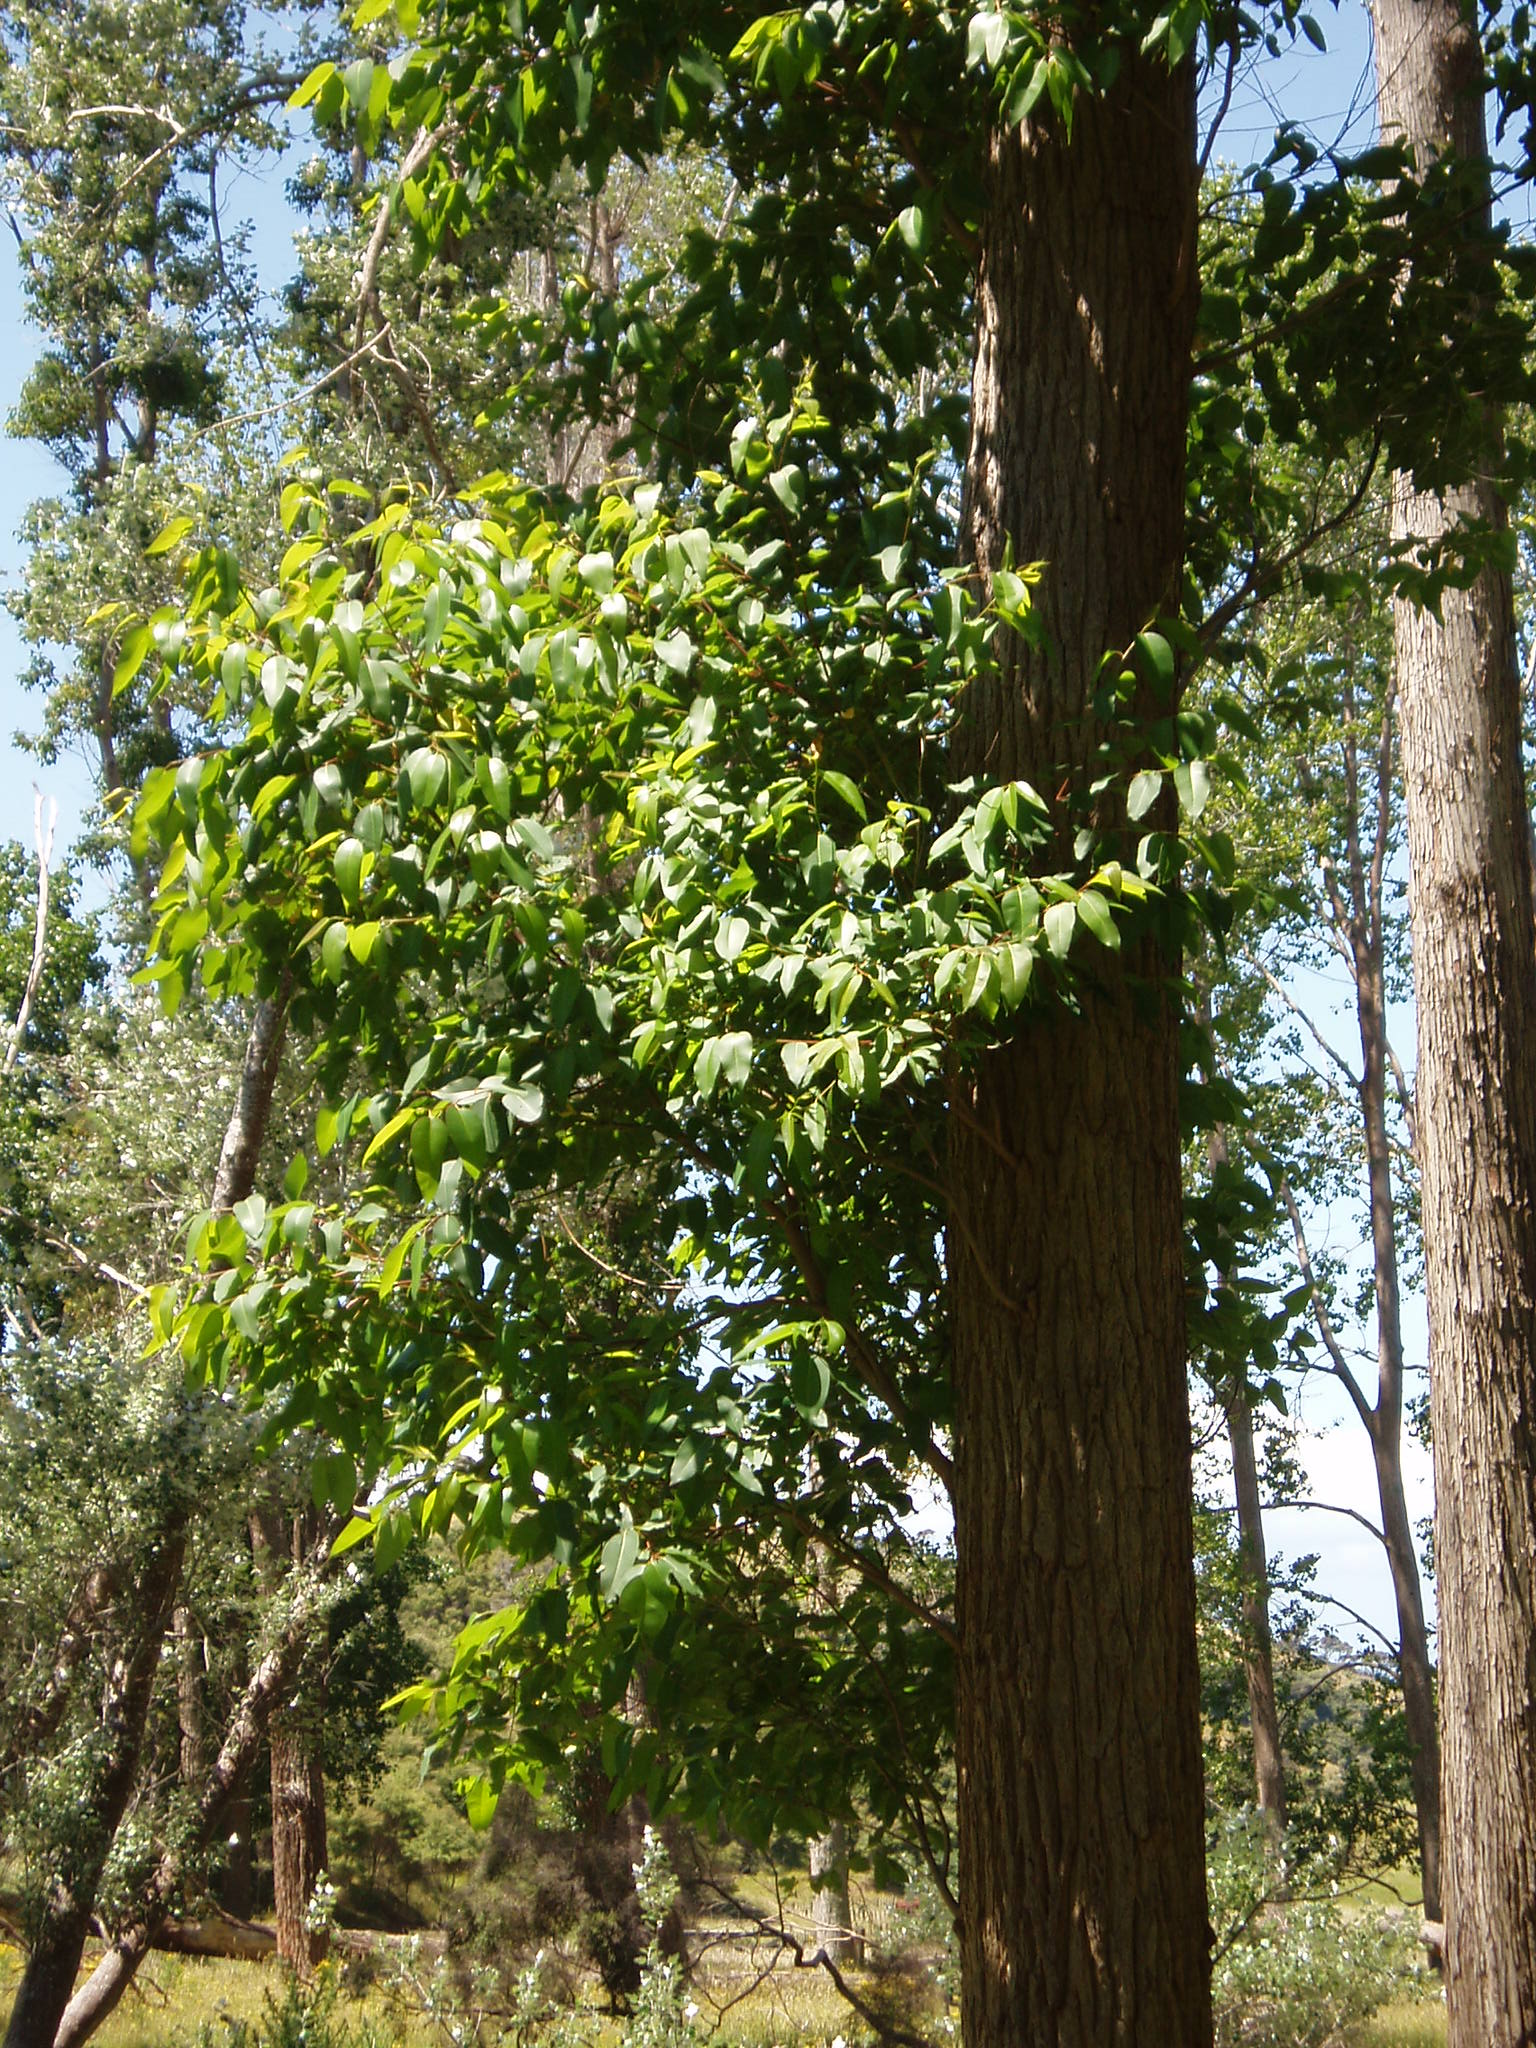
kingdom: Plantae
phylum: Tracheophyta
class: Magnoliopsida
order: Myrtales
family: Myrtaceae
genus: Eucalyptus
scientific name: Eucalyptus botryoides
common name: Bangalay
